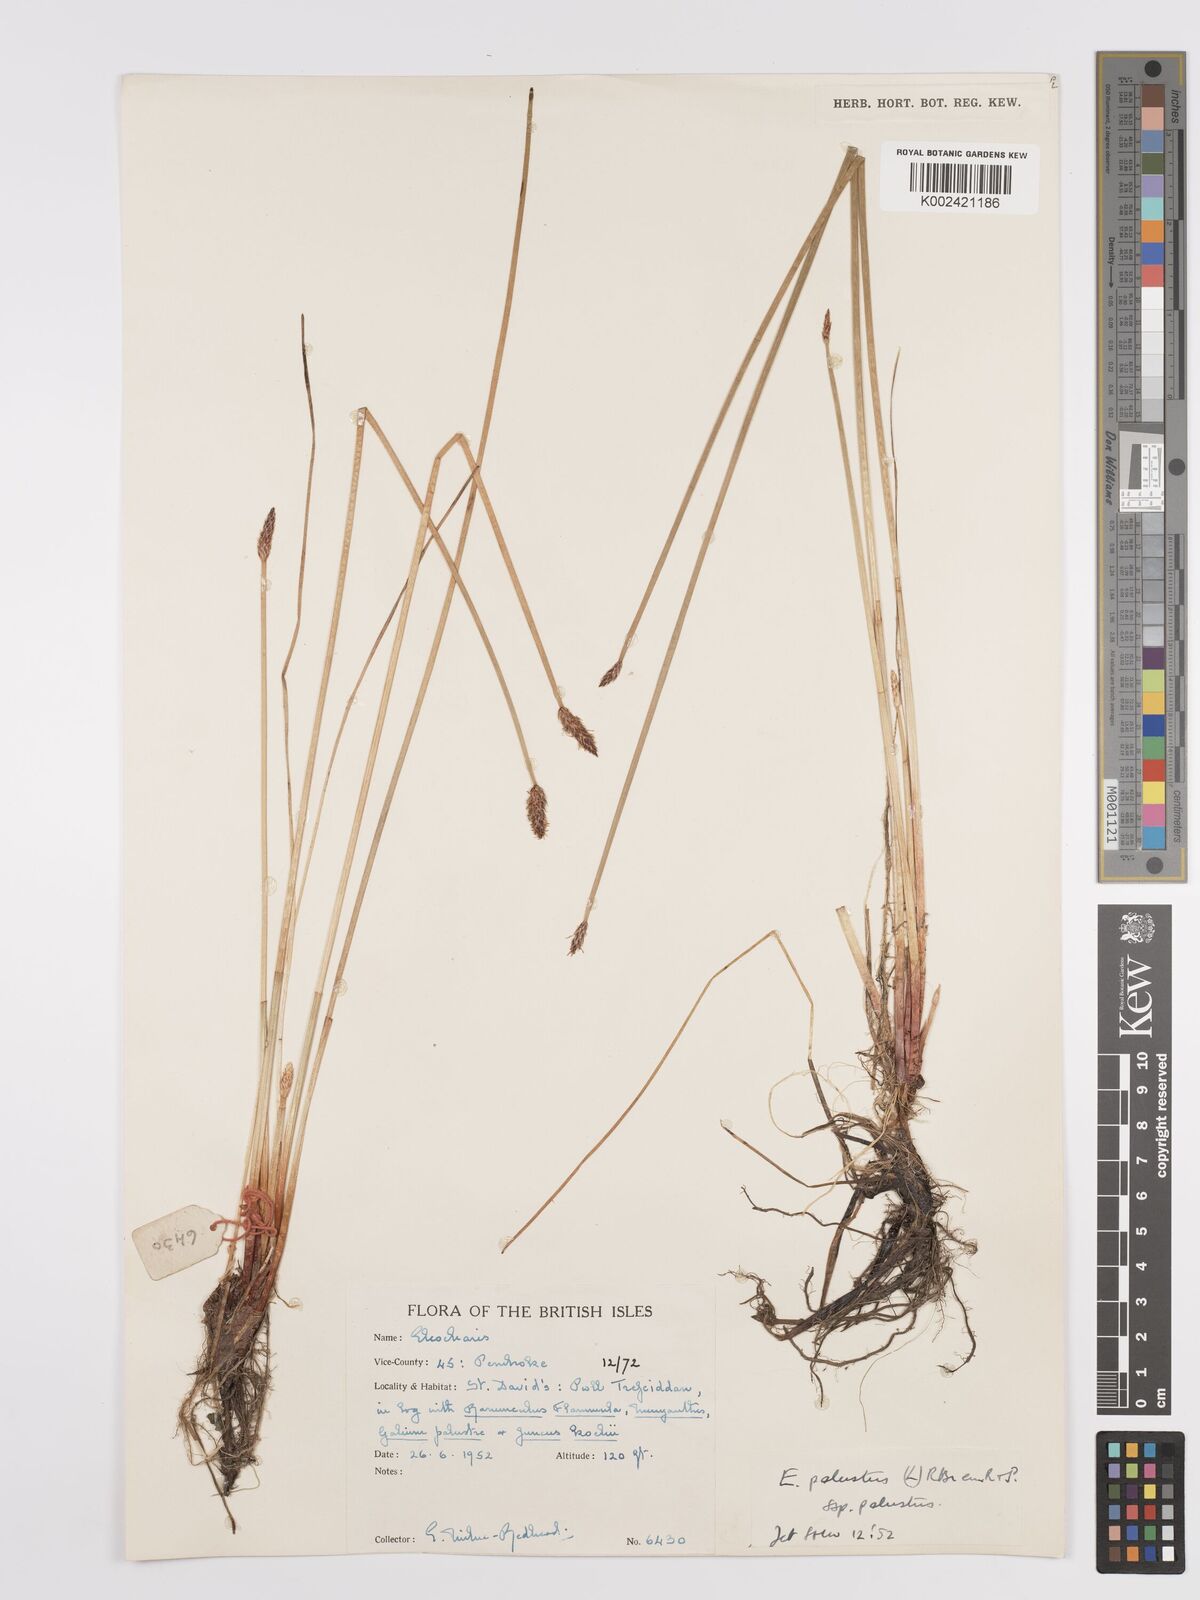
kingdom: Plantae
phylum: Tracheophyta
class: Liliopsida
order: Poales
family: Cyperaceae
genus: Eleocharis
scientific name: Eleocharis palustris
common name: Common spike-rush
